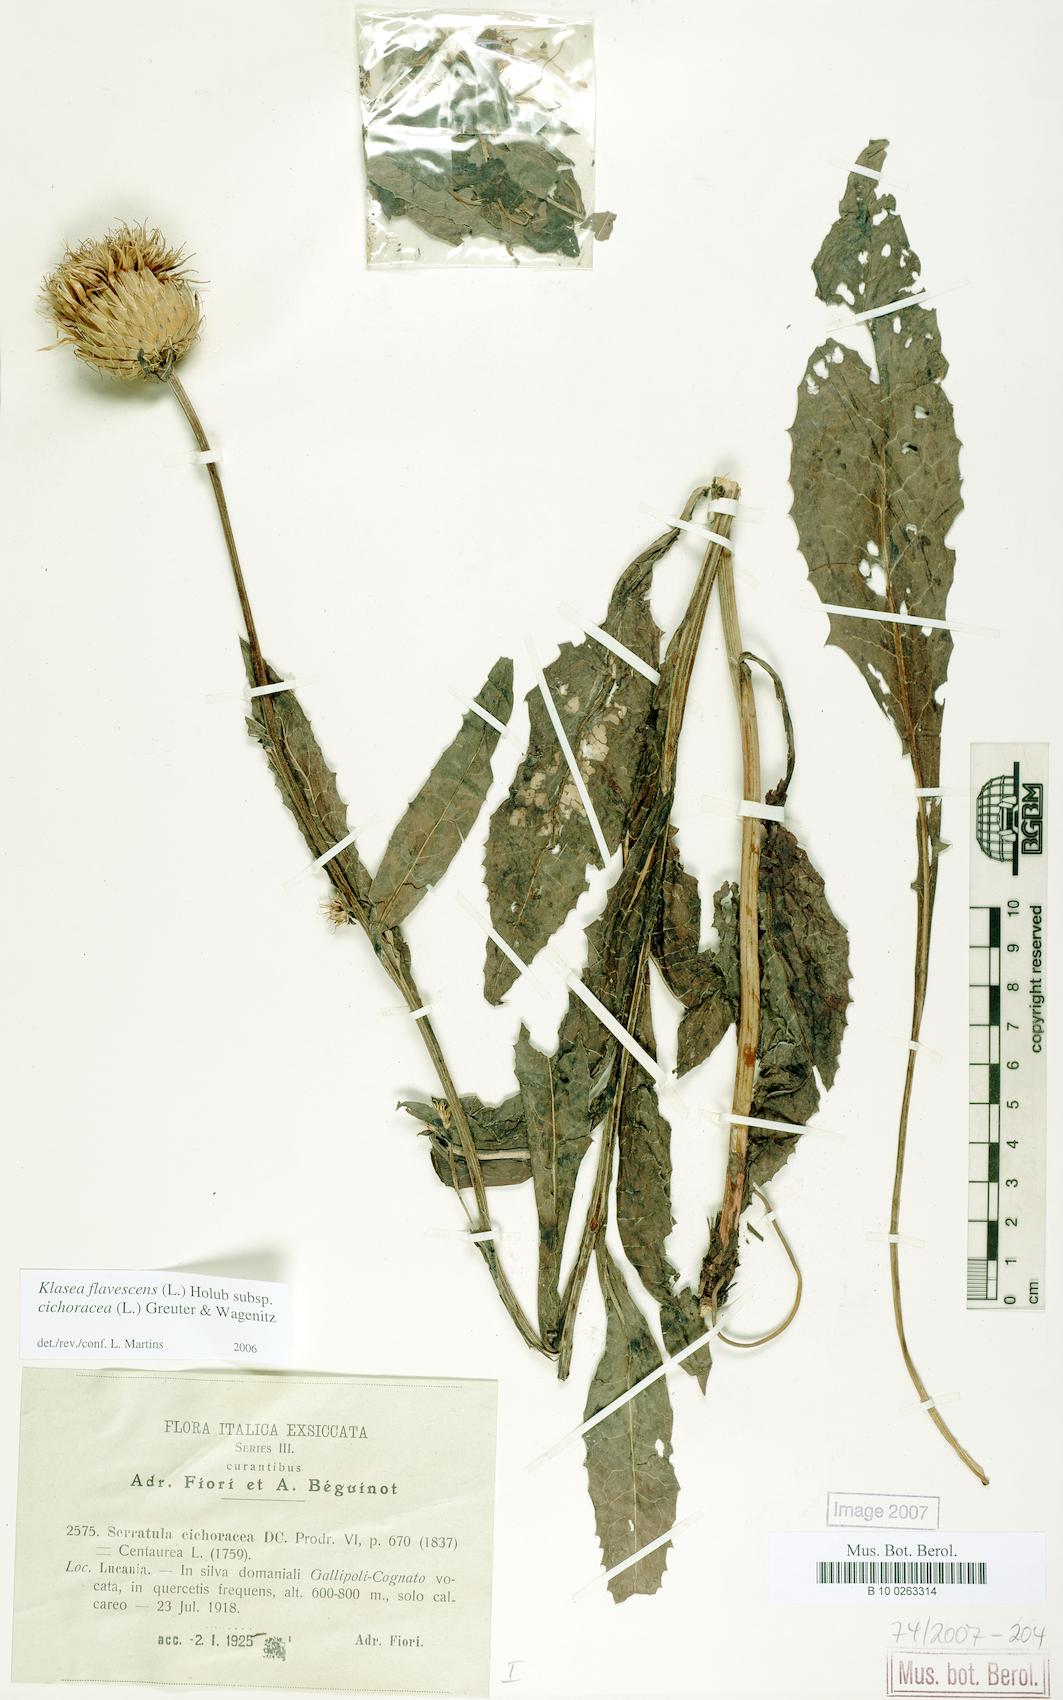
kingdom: Plantae
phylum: Tracheophyta
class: Magnoliopsida
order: Asterales
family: Asteraceae
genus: Klasea
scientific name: Klasea flavescens
